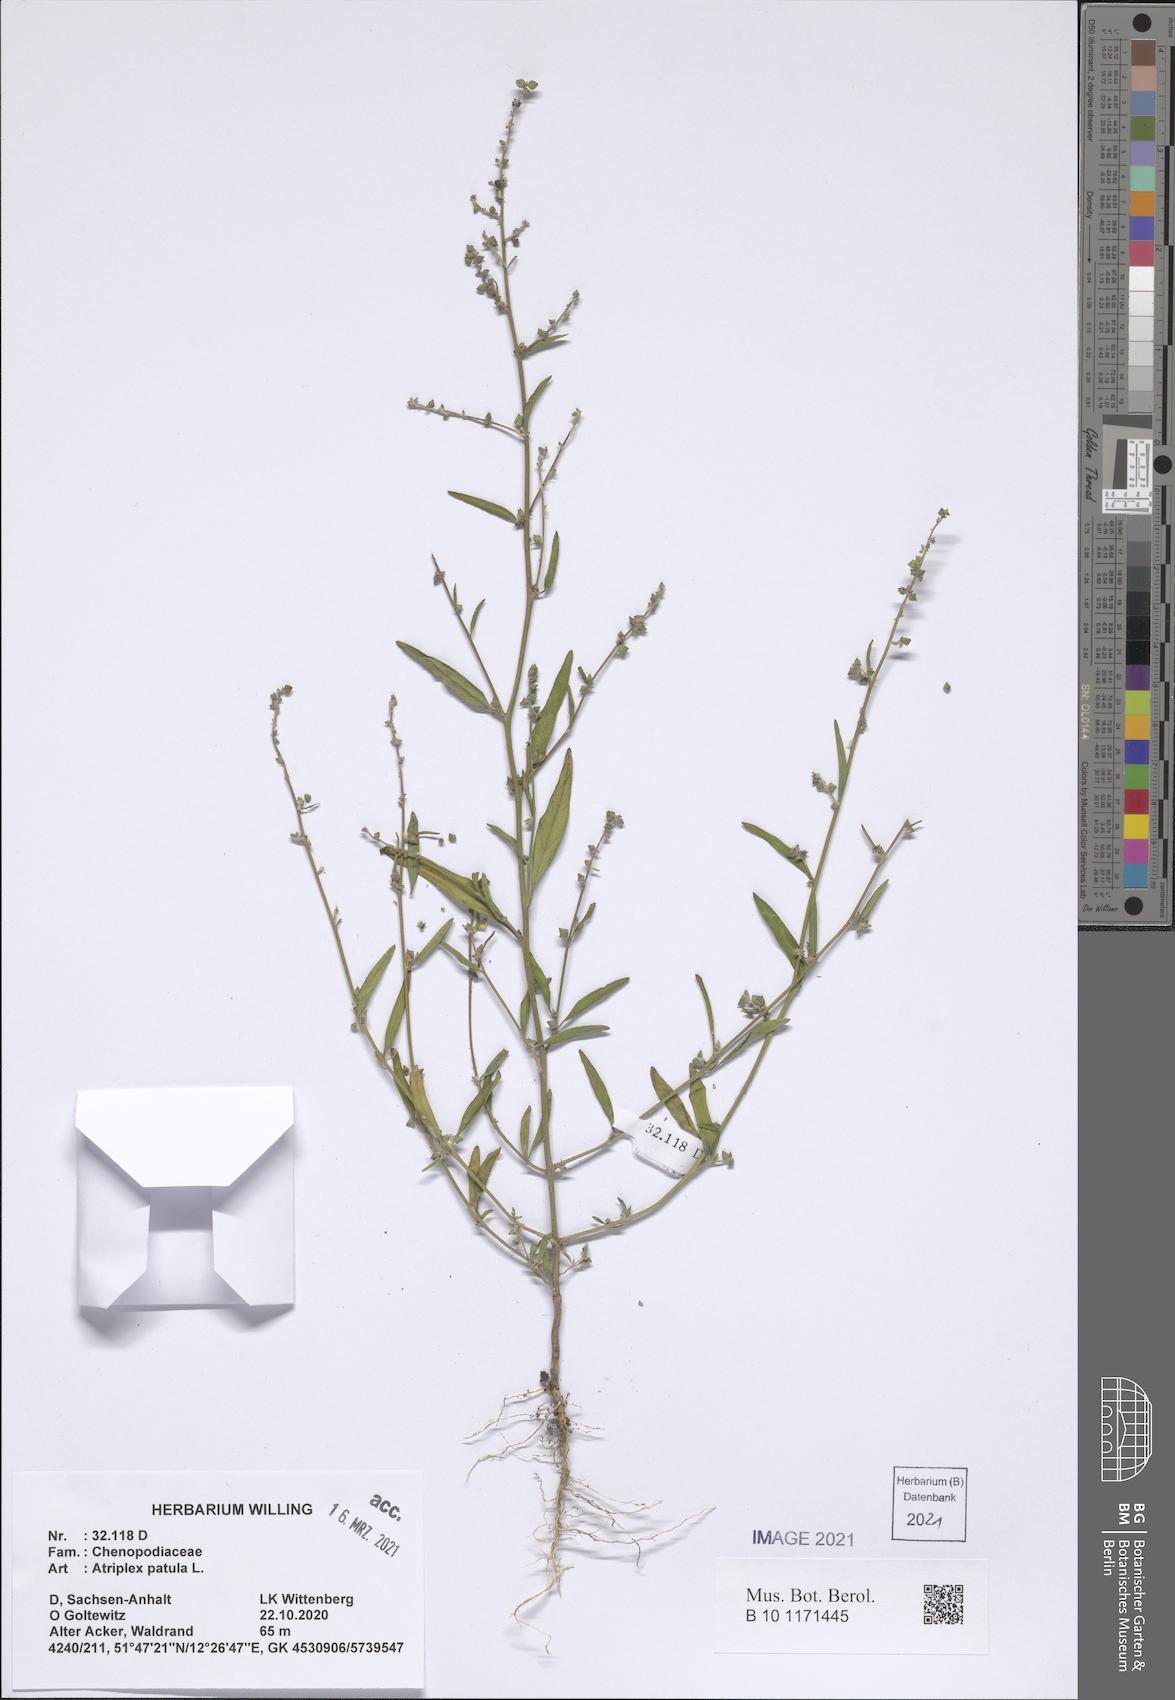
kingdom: Plantae
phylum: Tracheophyta
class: Magnoliopsida
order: Caryophyllales
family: Amaranthaceae
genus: Atriplex
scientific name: Atriplex patula
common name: Common orache
